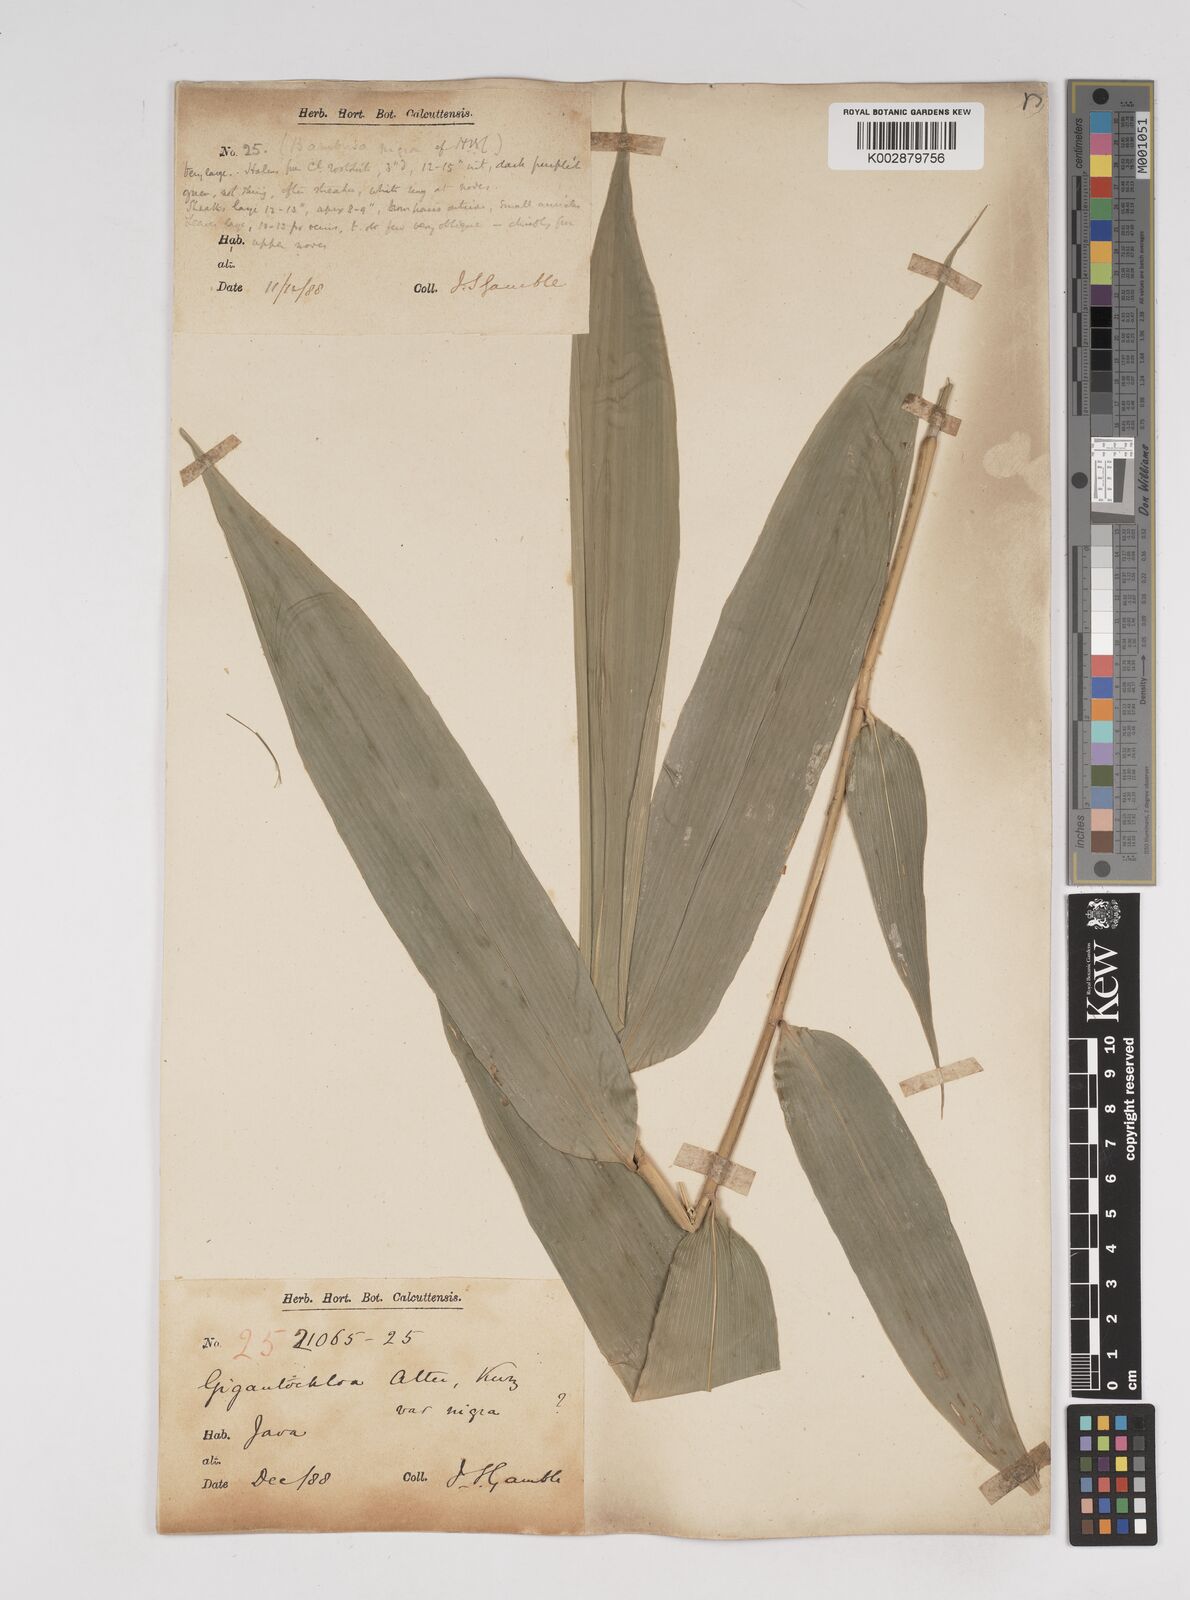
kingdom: Plantae
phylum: Tracheophyta
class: Liliopsida
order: Poales
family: Poaceae
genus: Gigantochloa
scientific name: Gigantochloa atter
